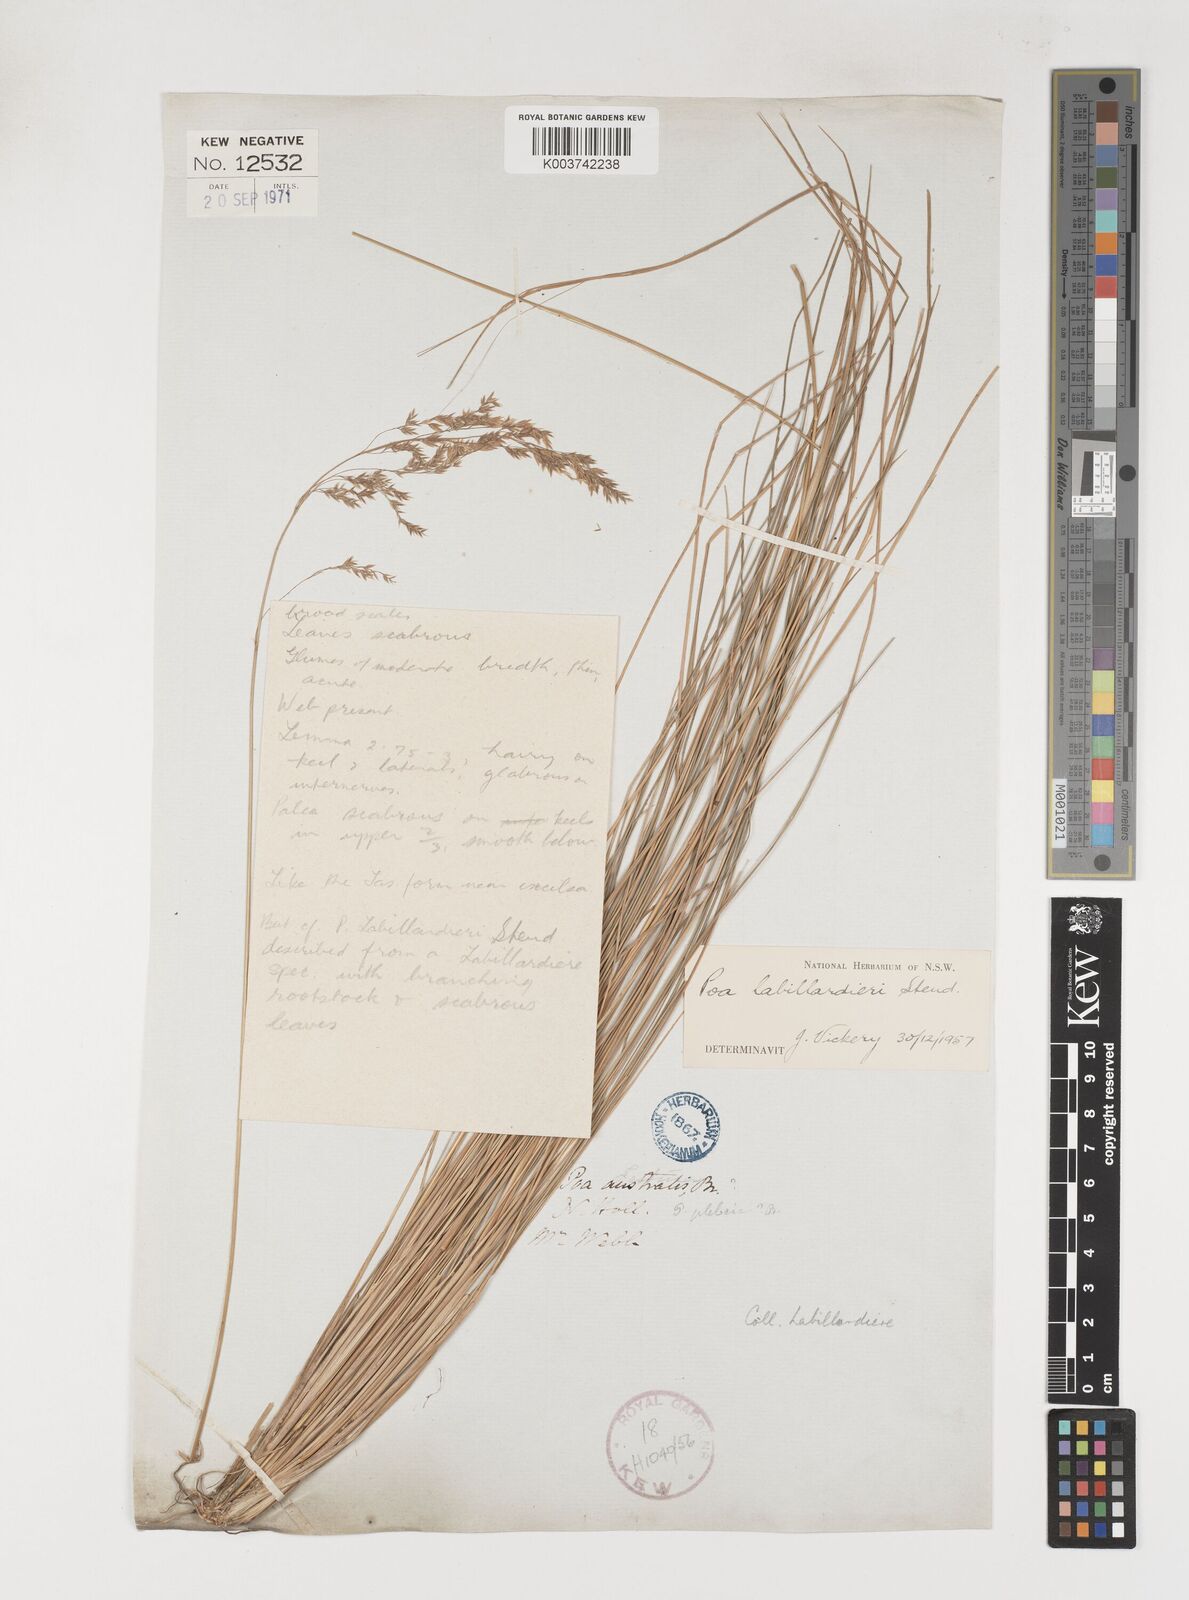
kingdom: Plantae
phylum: Tracheophyta
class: Liliopsida
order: Poales
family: Poaceae
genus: Poa
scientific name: Poa labillardierei
